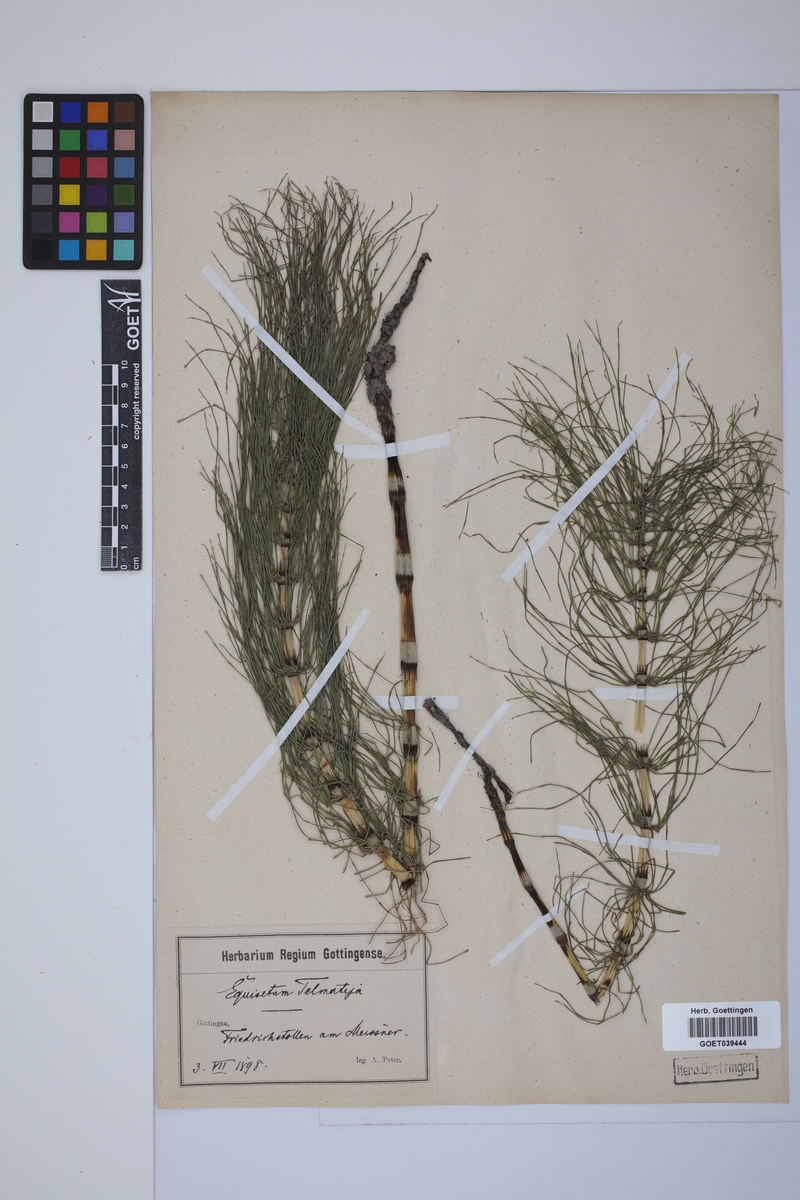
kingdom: Plantae
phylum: Tracheophyta
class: Polypodiopsida
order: Equisetales
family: Equisetaceae
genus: Equisetum
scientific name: Equisetum telmateia
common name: Great horsetail
